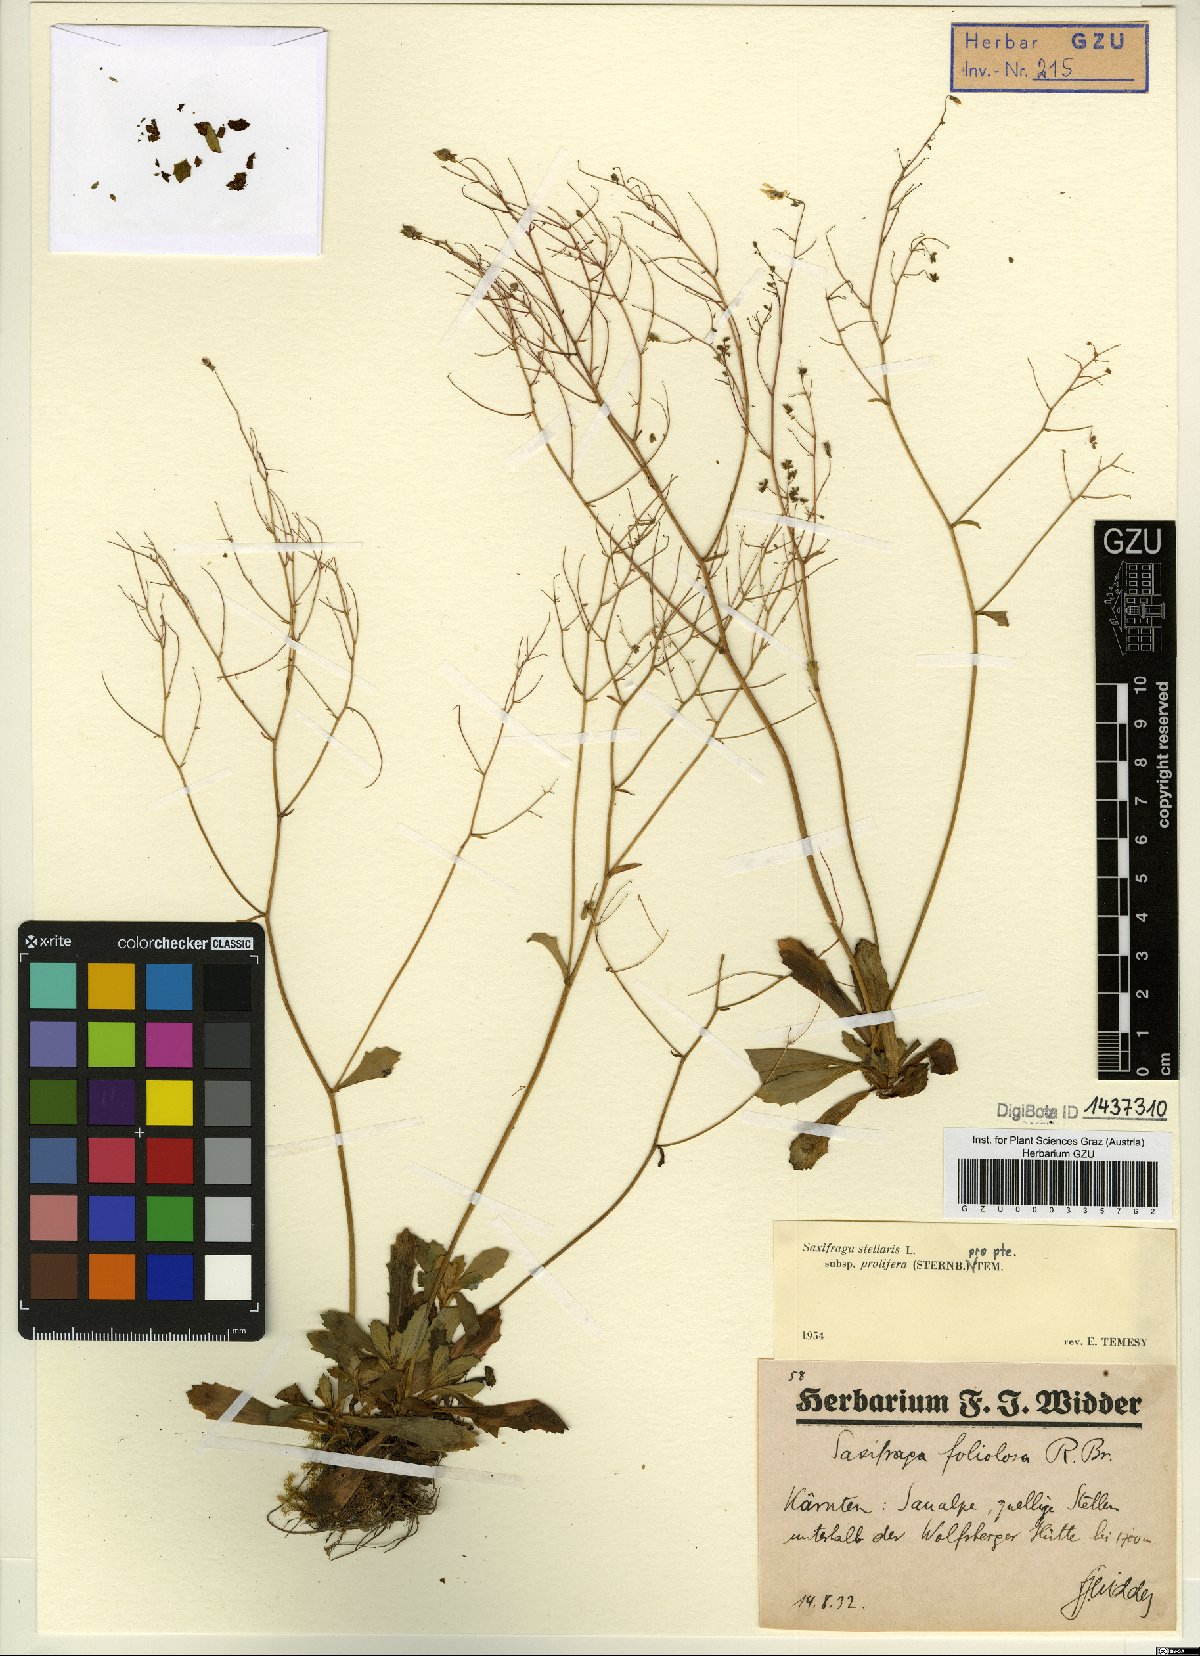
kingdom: Plantae
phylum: Tracheophyta
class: Magnoliopsida
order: Saxifragales
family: Saxifragaceae
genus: Micranthes
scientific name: Micranthes stellaris
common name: Starry saxifrage
